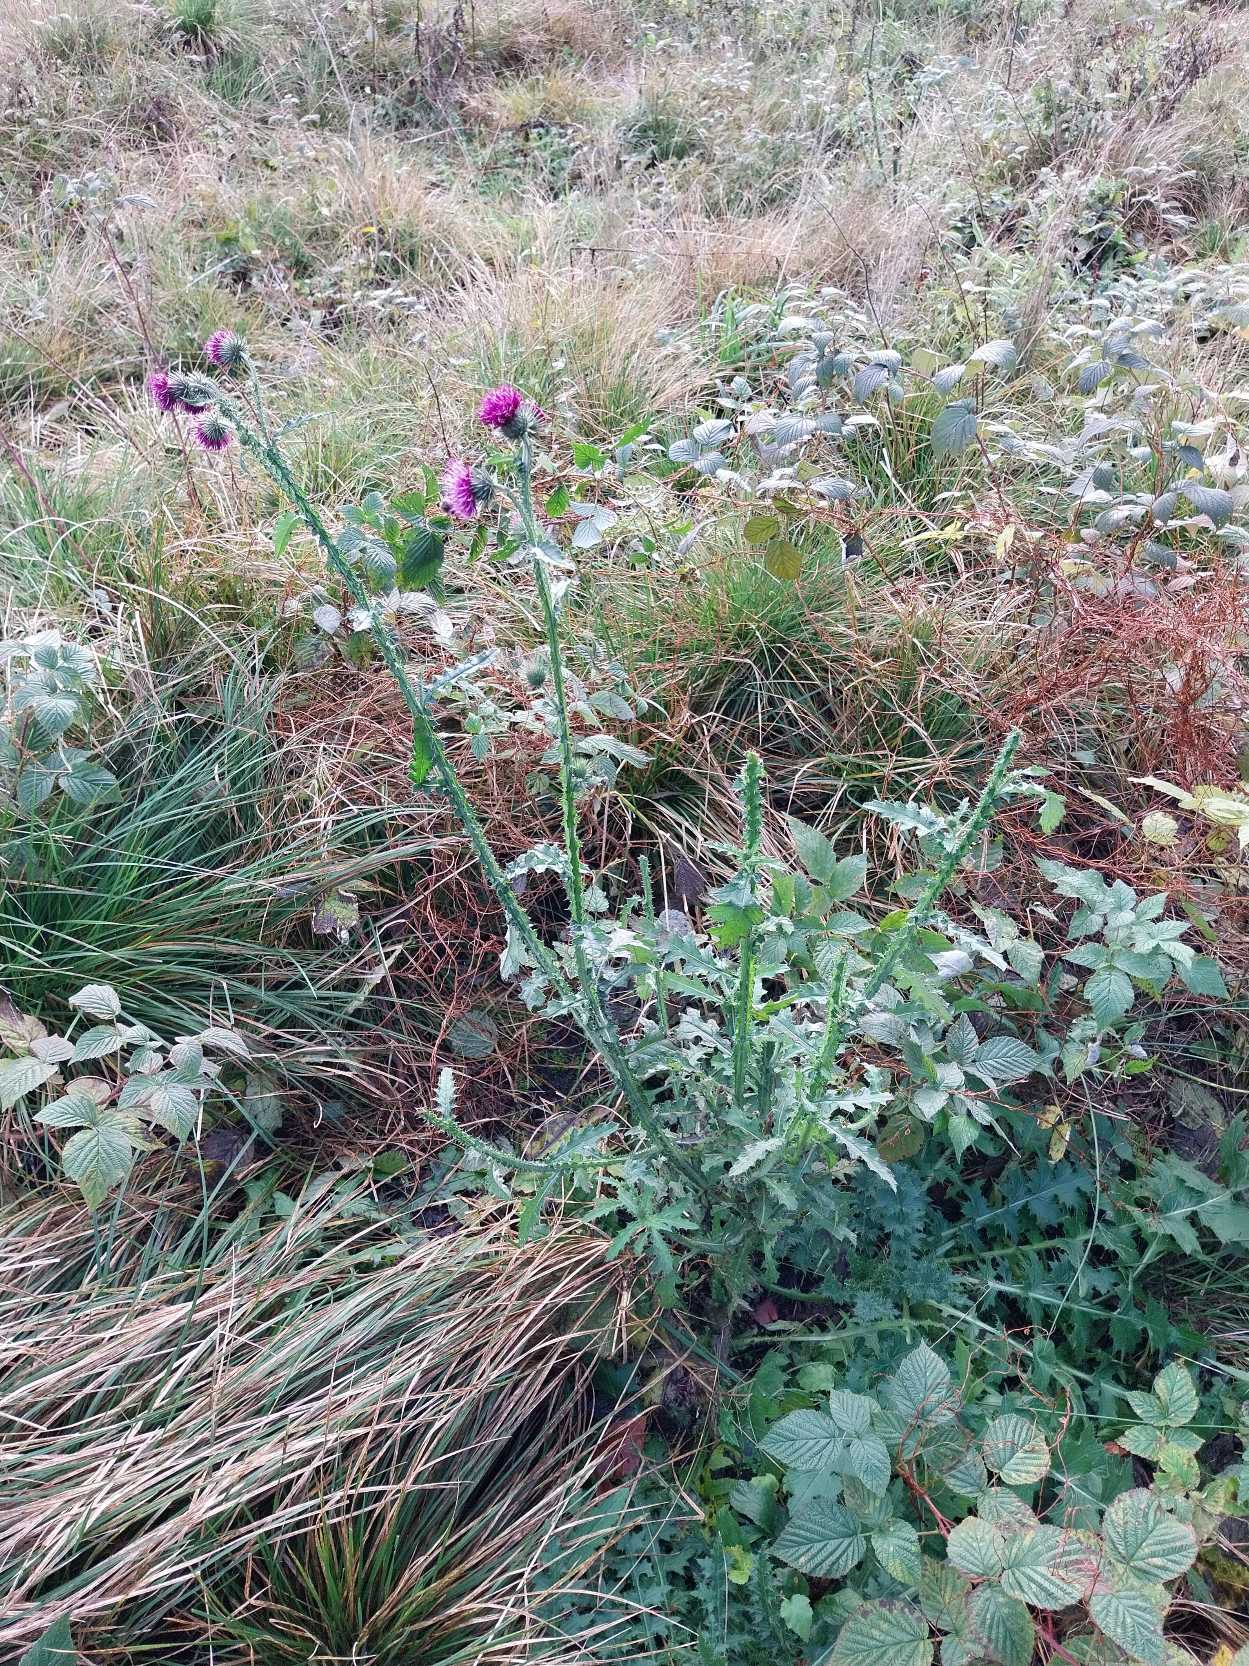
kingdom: Plantae
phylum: Tracheophyta
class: Magnoliopsida
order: Asterales
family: Asteraceae
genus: Carduus
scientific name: Carduus crispus
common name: Kruset tidsel
